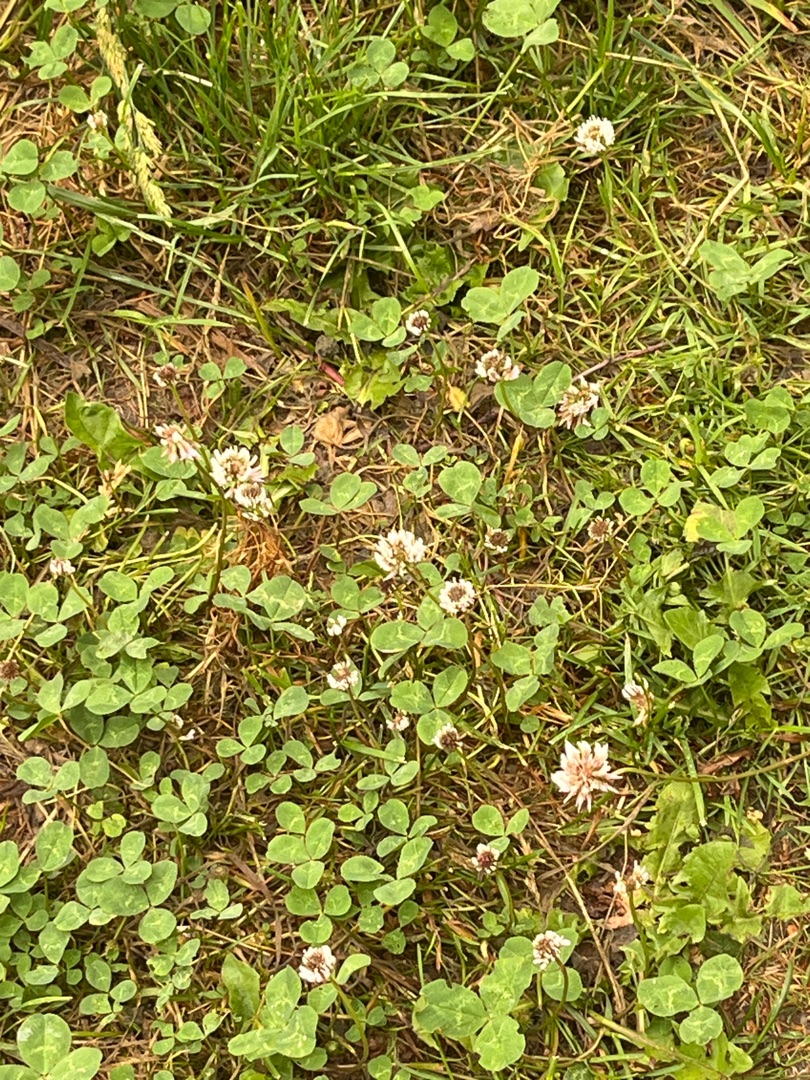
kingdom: Plantae
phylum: Tracheophyta
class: Magnoliopsida
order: Fabales
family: Fabaceae
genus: Trifolium
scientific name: Trifolium repens
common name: Hvid-kløver
